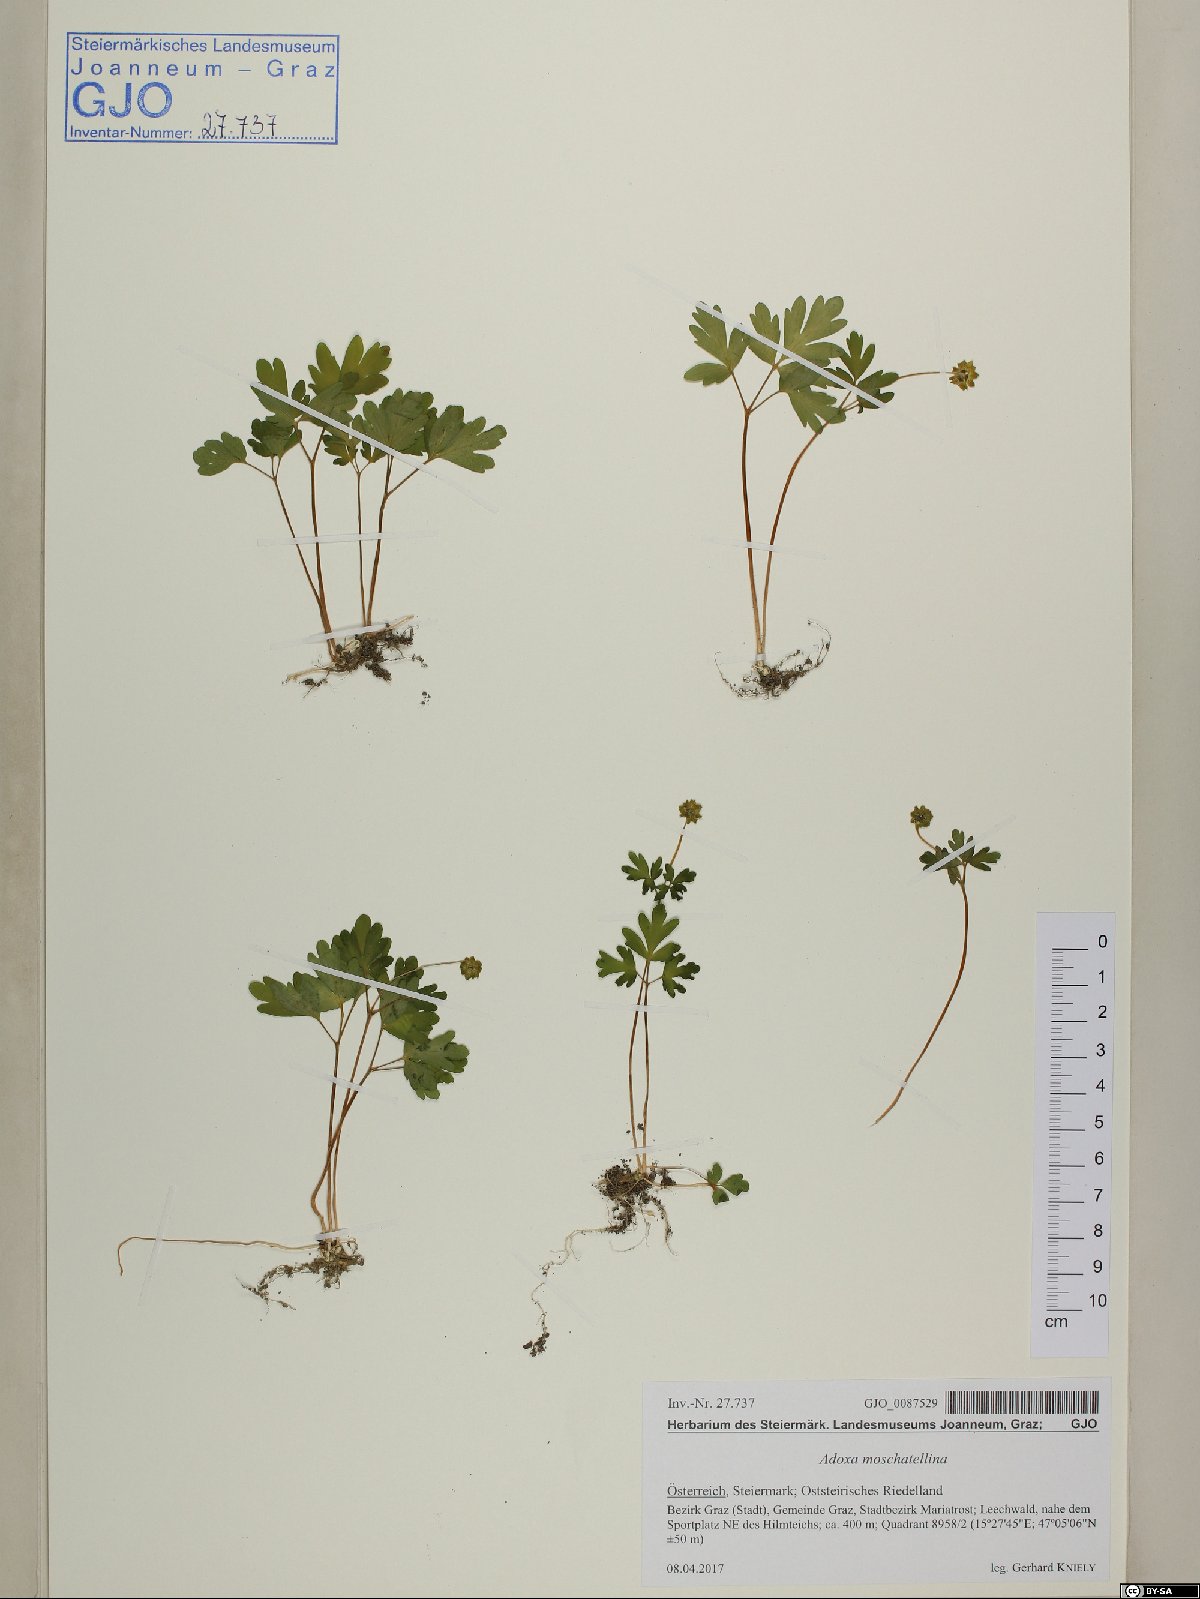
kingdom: Plantae
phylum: Tracheophyta
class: Magnoliopsida
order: Dipsacales
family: Viburnaceae
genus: Adoxa
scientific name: Adoxa moschatellina
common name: Moschatel
